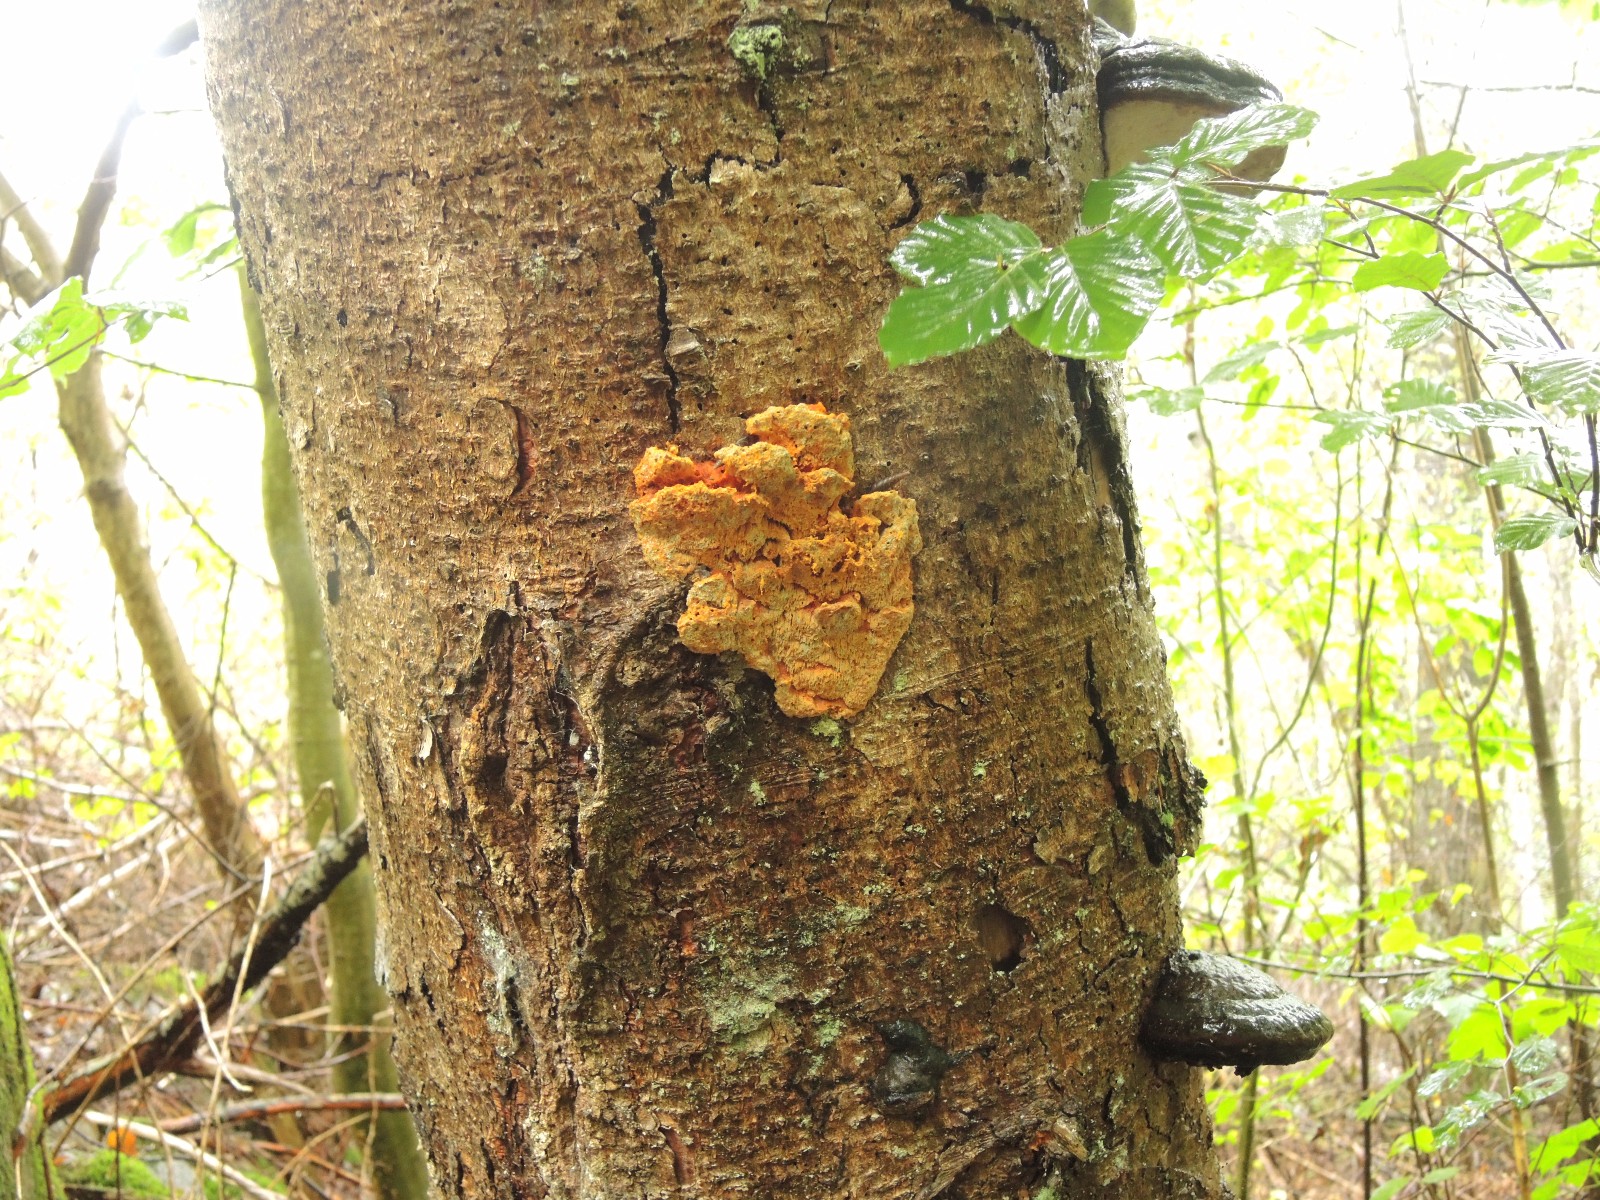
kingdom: Fungi
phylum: Basidiomycota
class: Agaricomycetes
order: Polyporales
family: Pycnoporellaceae
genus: Pycnoporellus
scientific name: Pycnoporellus fulgens
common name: flammeporesvamp
